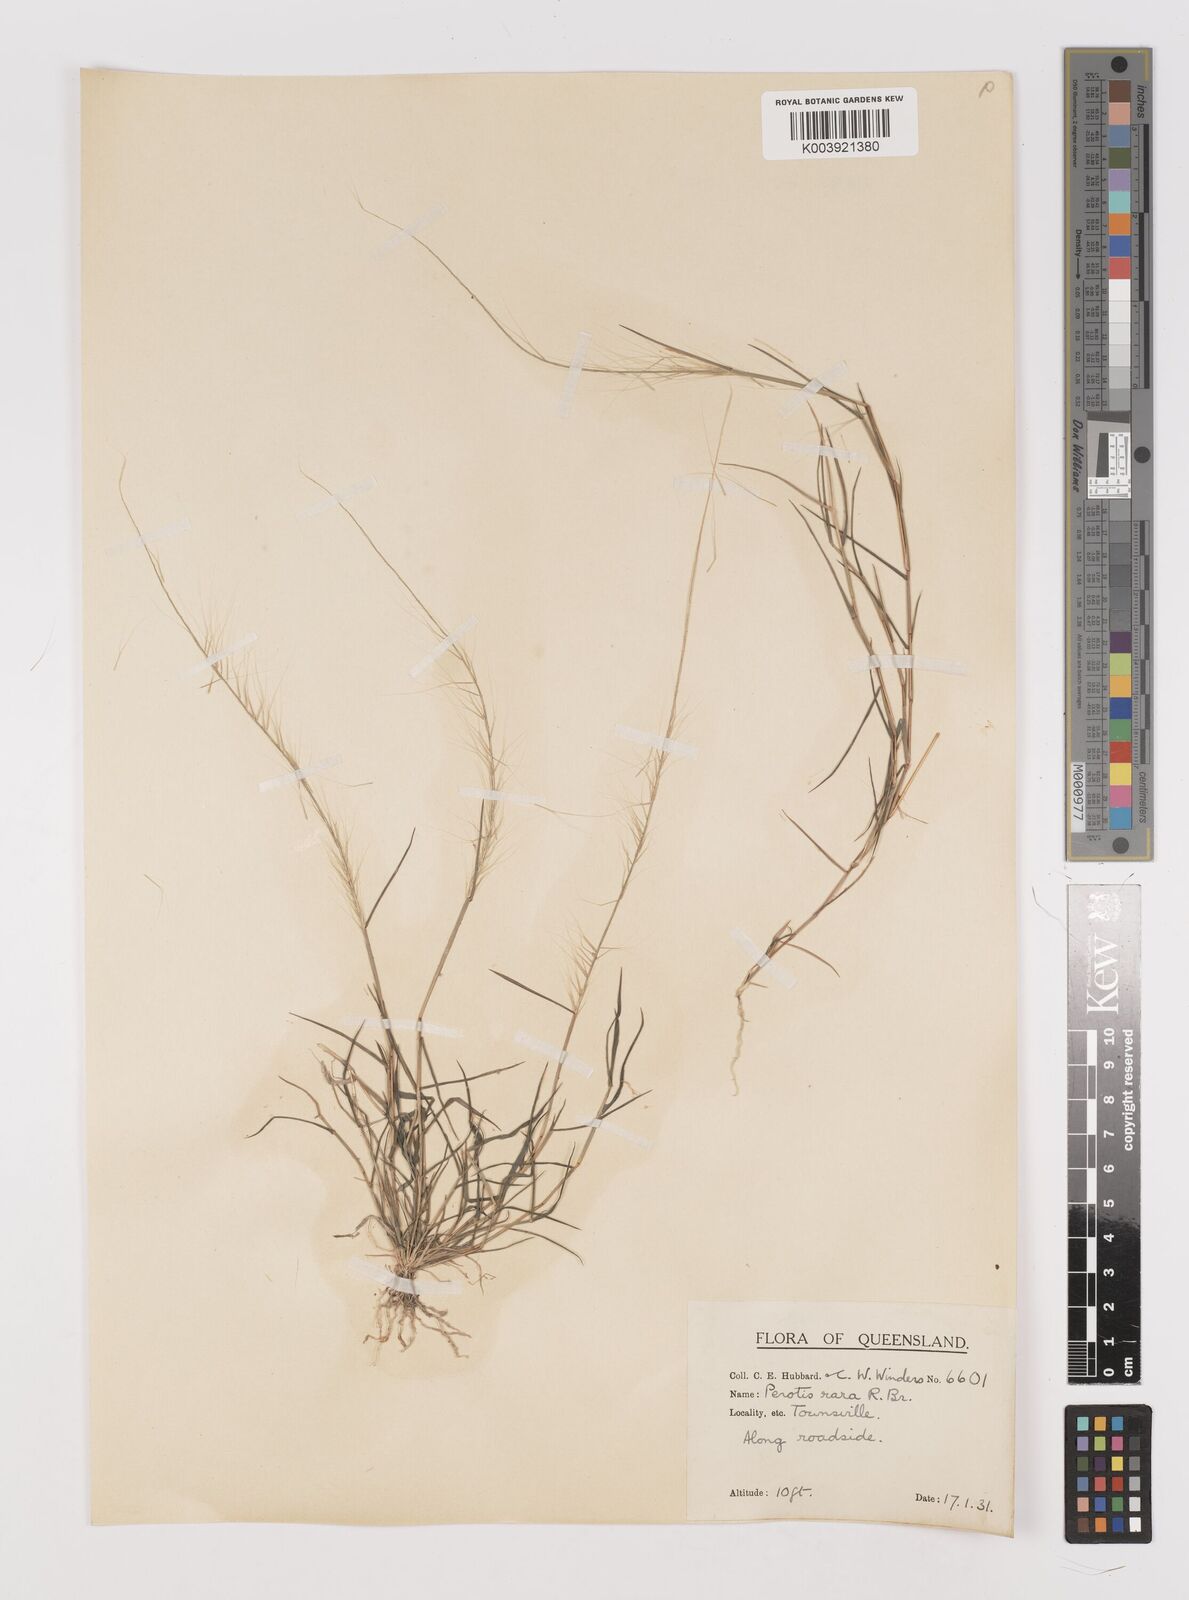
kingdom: Plantae
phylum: Tracheophyta
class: Liliopsida
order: Poales
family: Poaceae
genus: Perotis
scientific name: Perotis rara
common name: Comet grass
